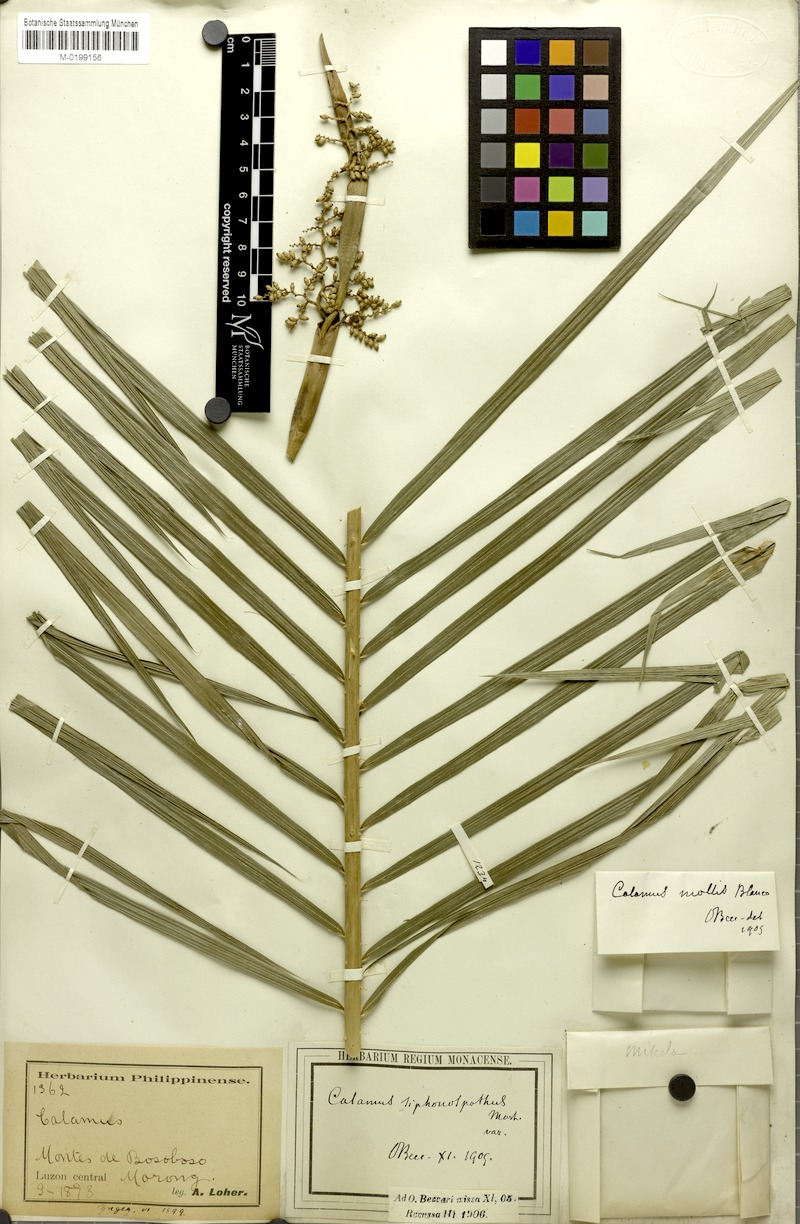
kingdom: Plantae
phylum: Tracheophyta
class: Liliopsida
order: Arecales
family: Arecaceae
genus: Calamus
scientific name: Calamus siphonospathus
